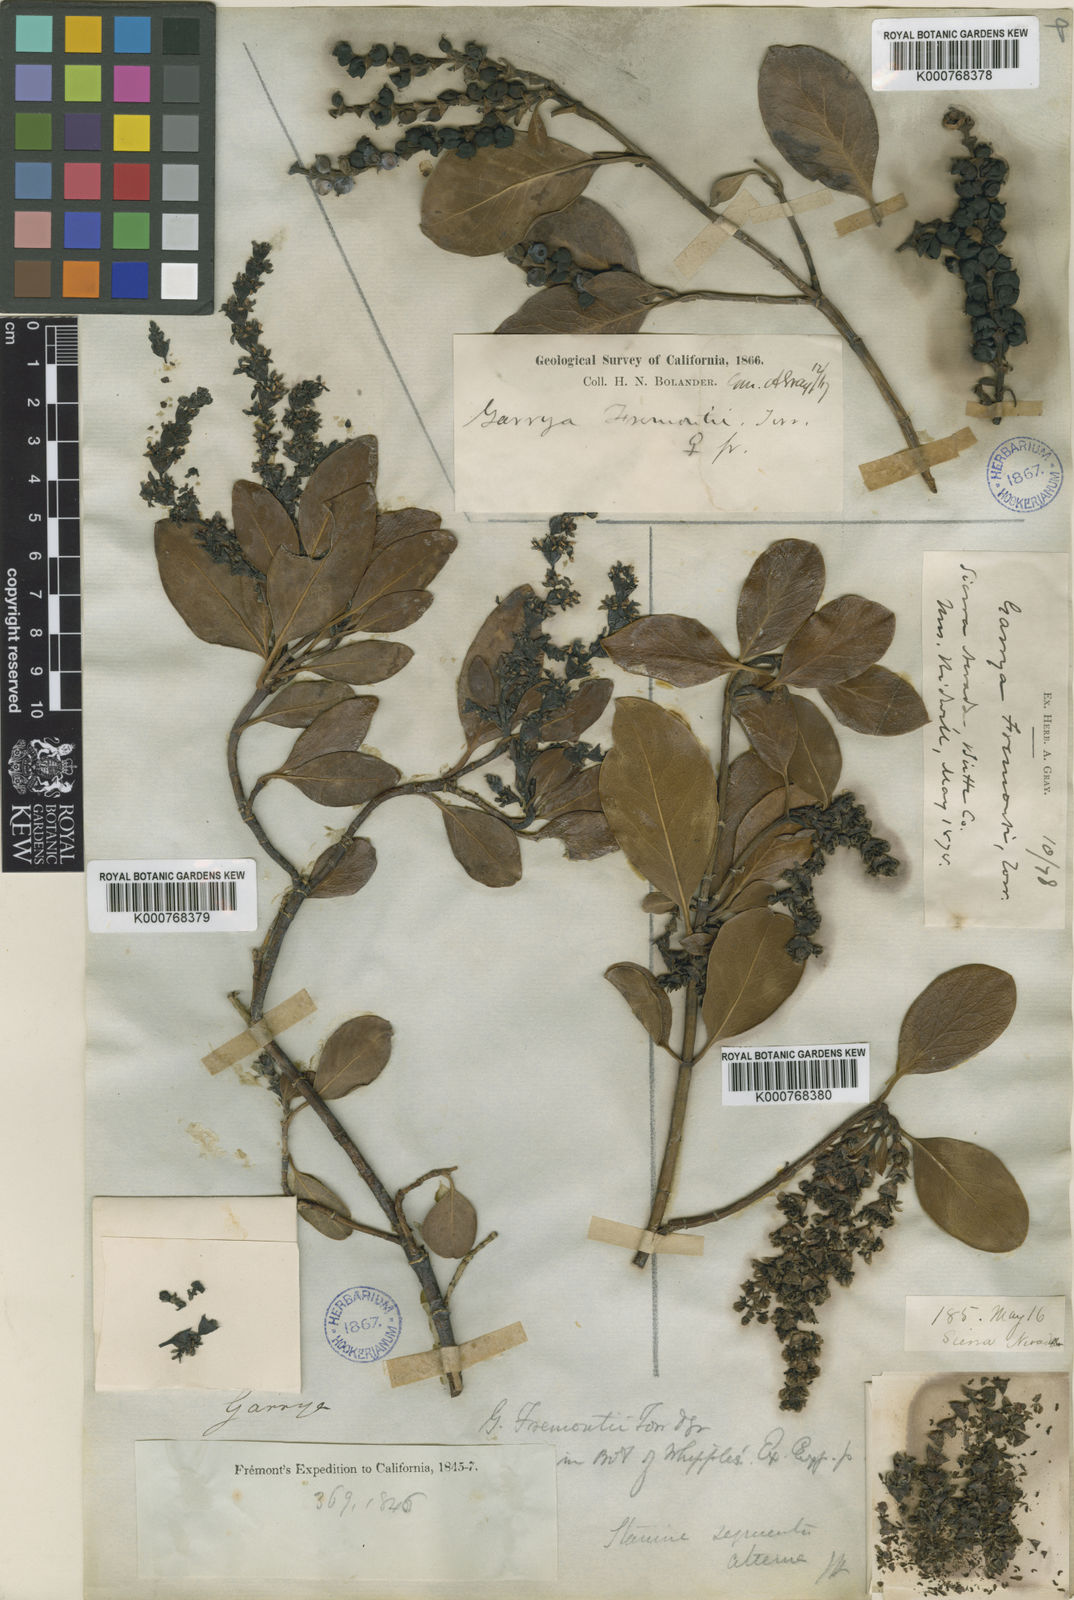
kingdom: Plantae
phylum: Tracheophyta
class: Magnoliopsida
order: Garryales
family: Garryaceae
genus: Garrya
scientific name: Garrya fremontii
